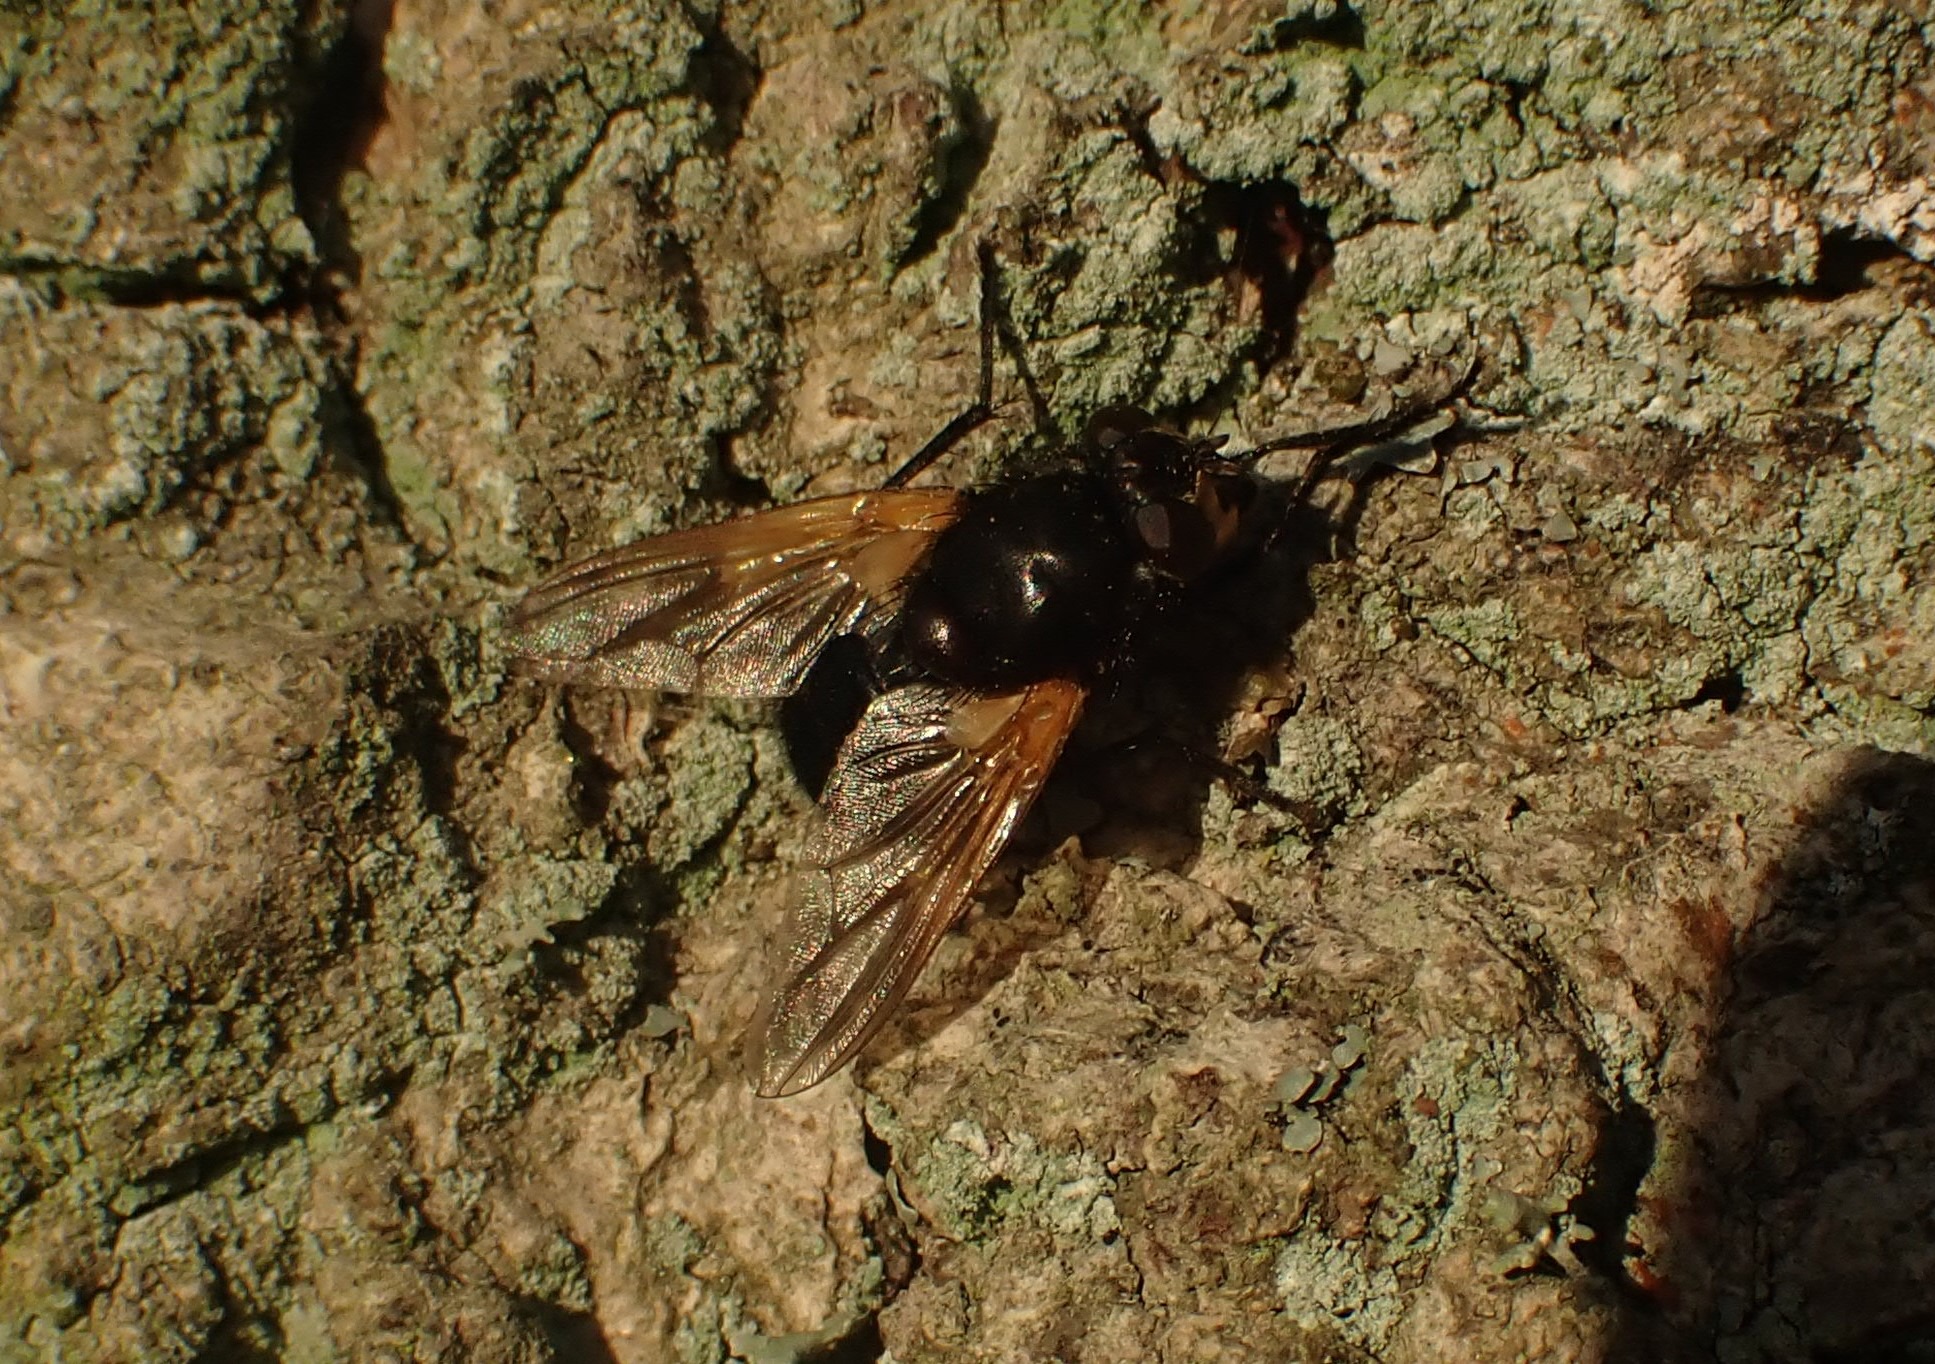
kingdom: Animalia
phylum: Arthropoda
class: Insecta
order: Diptera
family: Muscidae
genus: Mesembrina
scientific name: Mesembrina meridiana
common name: Gulvinget flue
